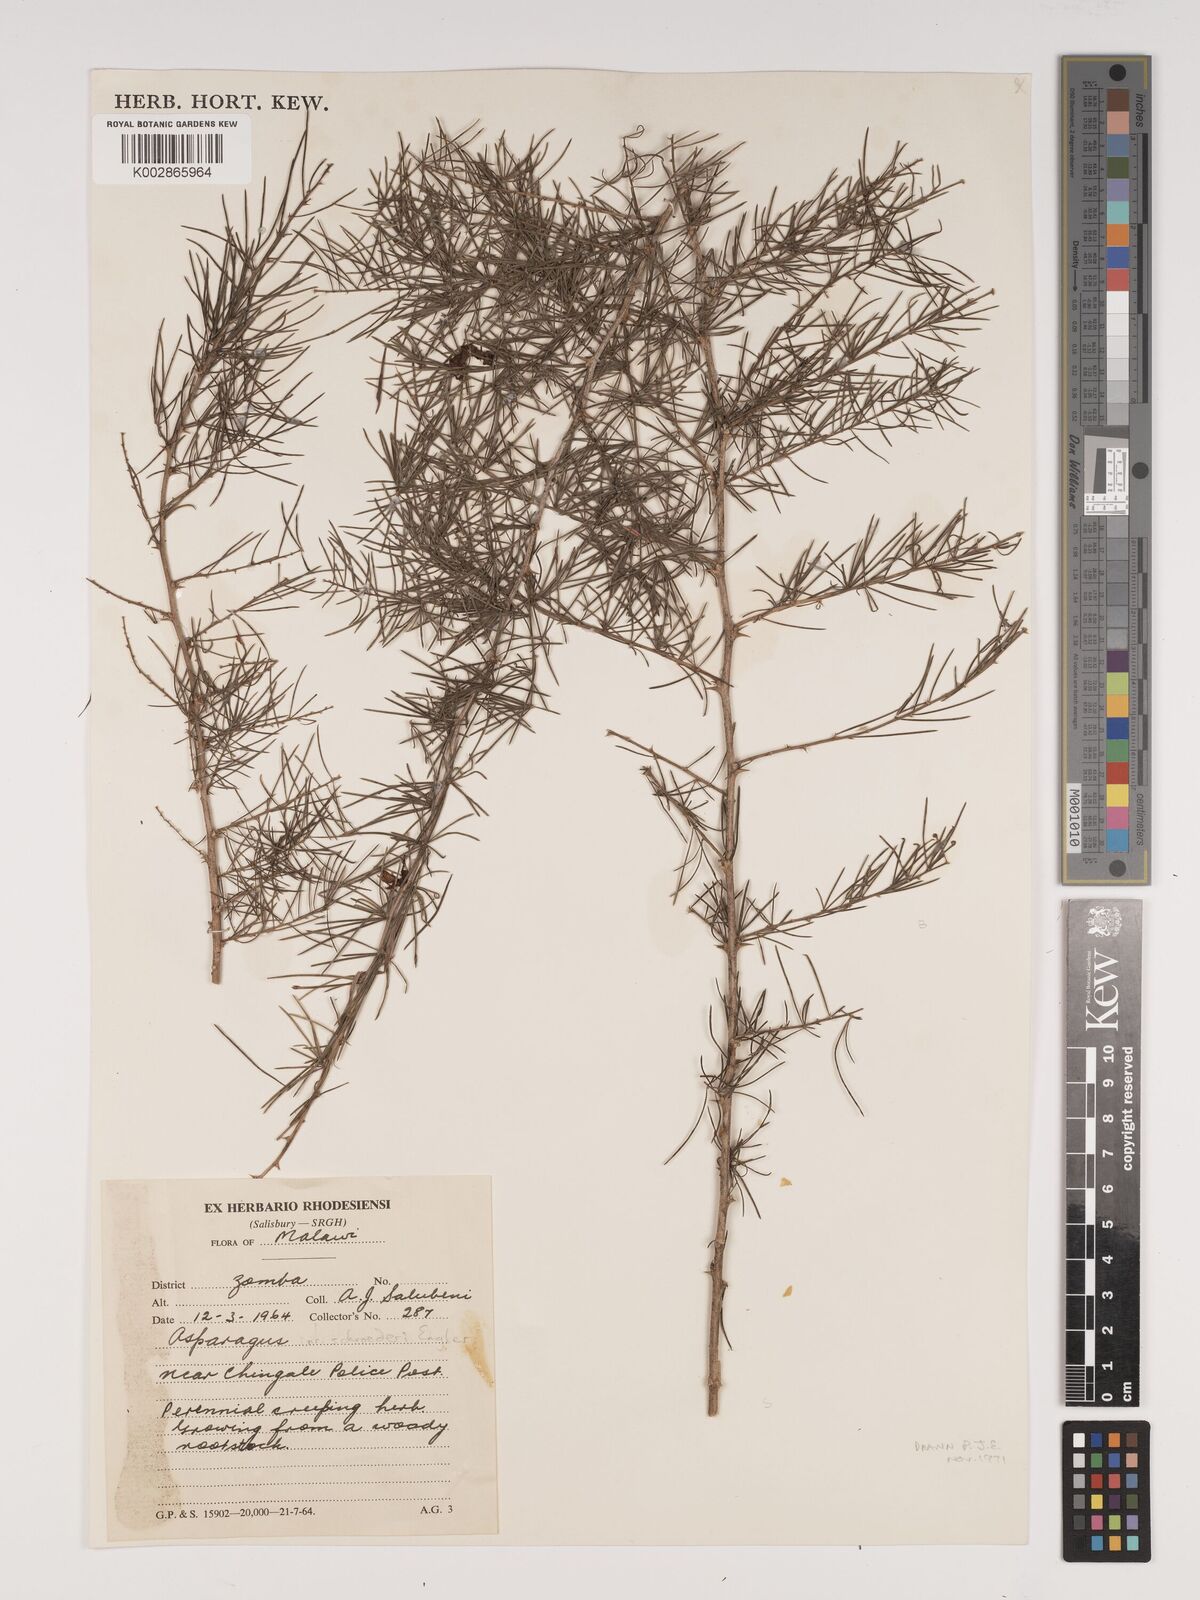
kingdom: Plantae
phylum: Tracheophyta
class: Liliopsida
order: Asparagales
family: Asparagaceae
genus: Asparagus
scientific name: Asparagus schroederi
